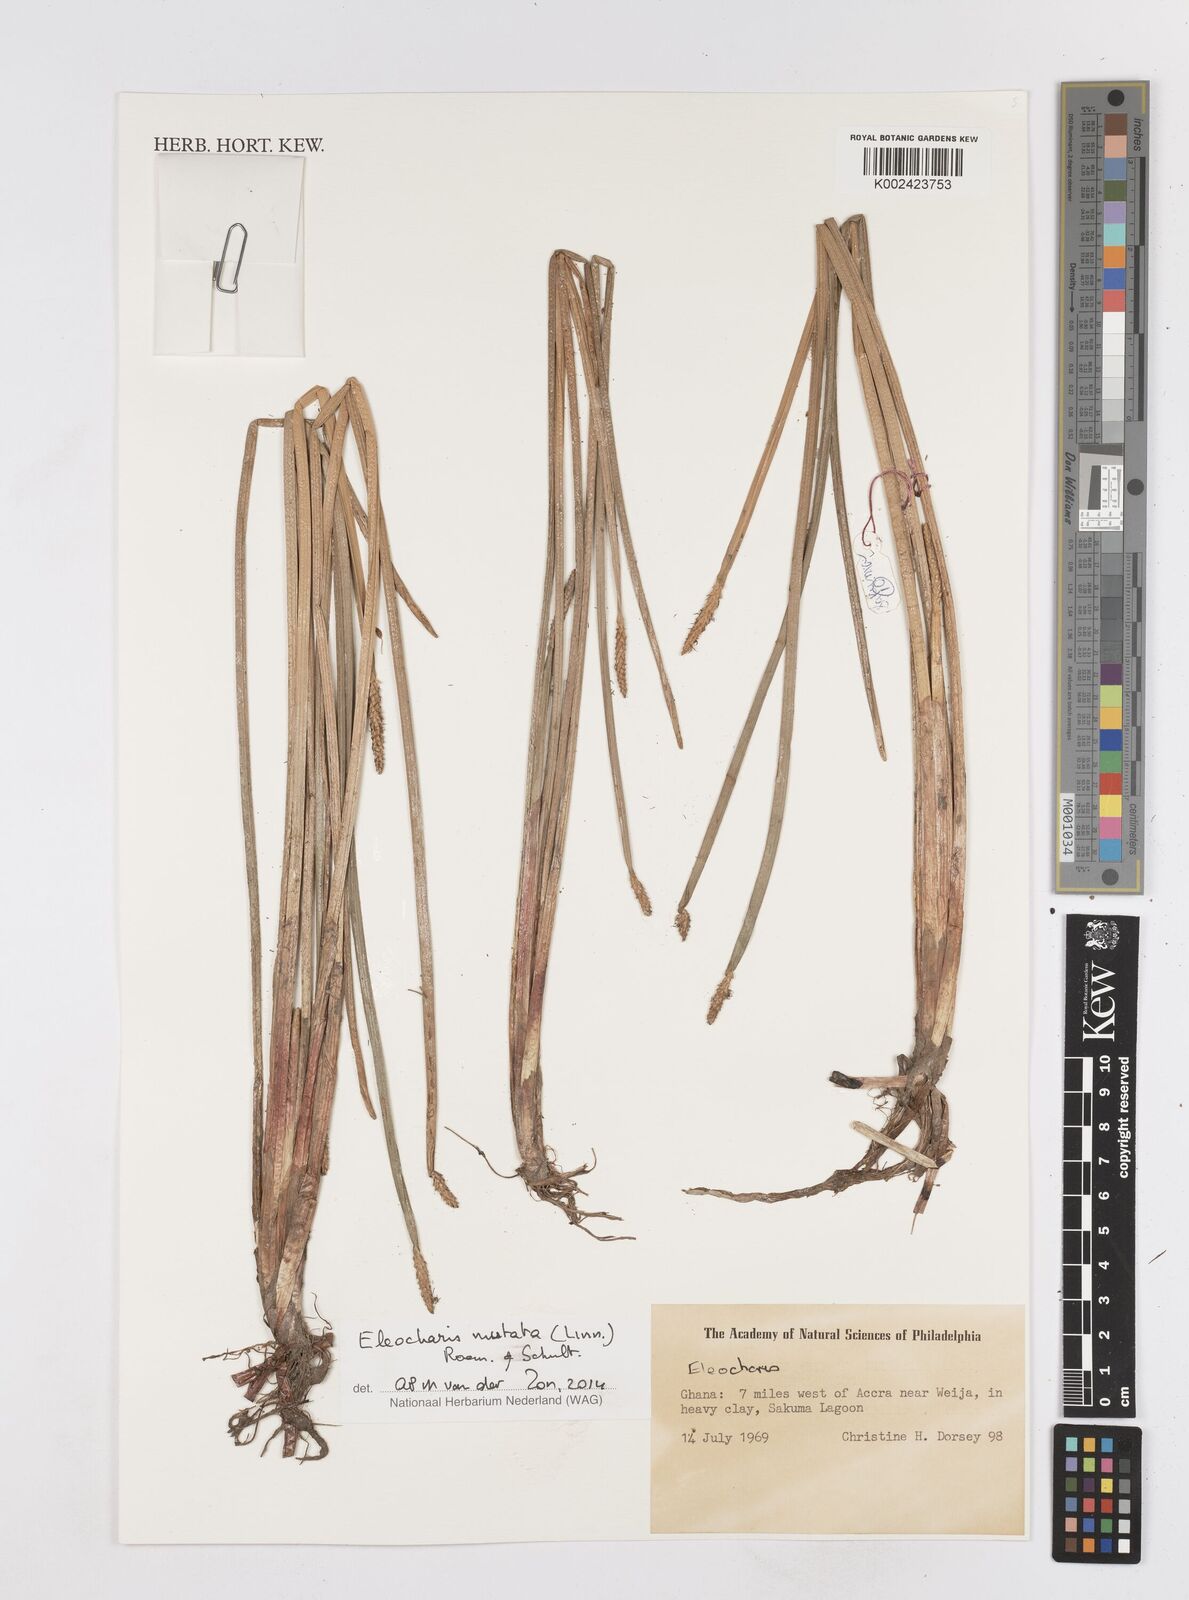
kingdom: Plantae
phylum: Tracheophyta
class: Liliopsida
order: Poales
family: Cyperaceae
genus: Eleocharis
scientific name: Eleocharis mutata
